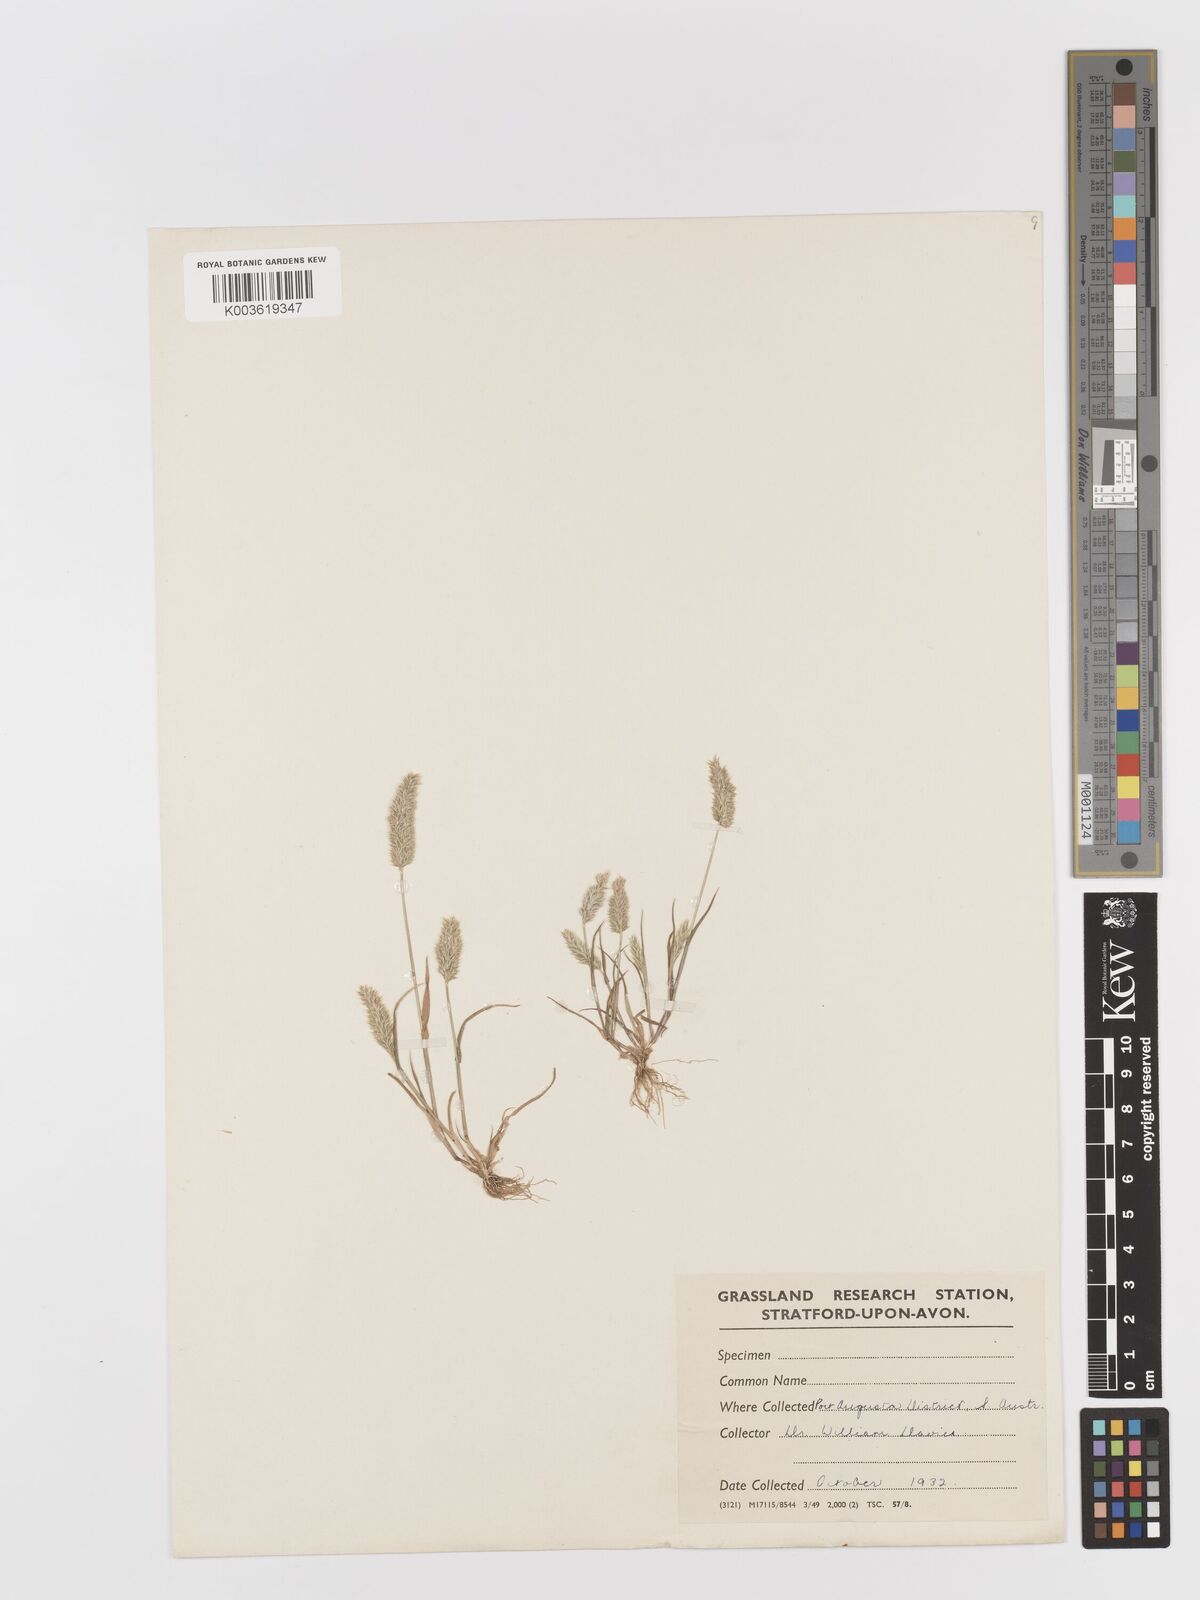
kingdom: Plantae
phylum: Tracheophyta
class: Liliopsida
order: Poales
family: Poaceae
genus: Rostraria
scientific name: Rostraria cristata
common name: Mediterranean hair-grass
